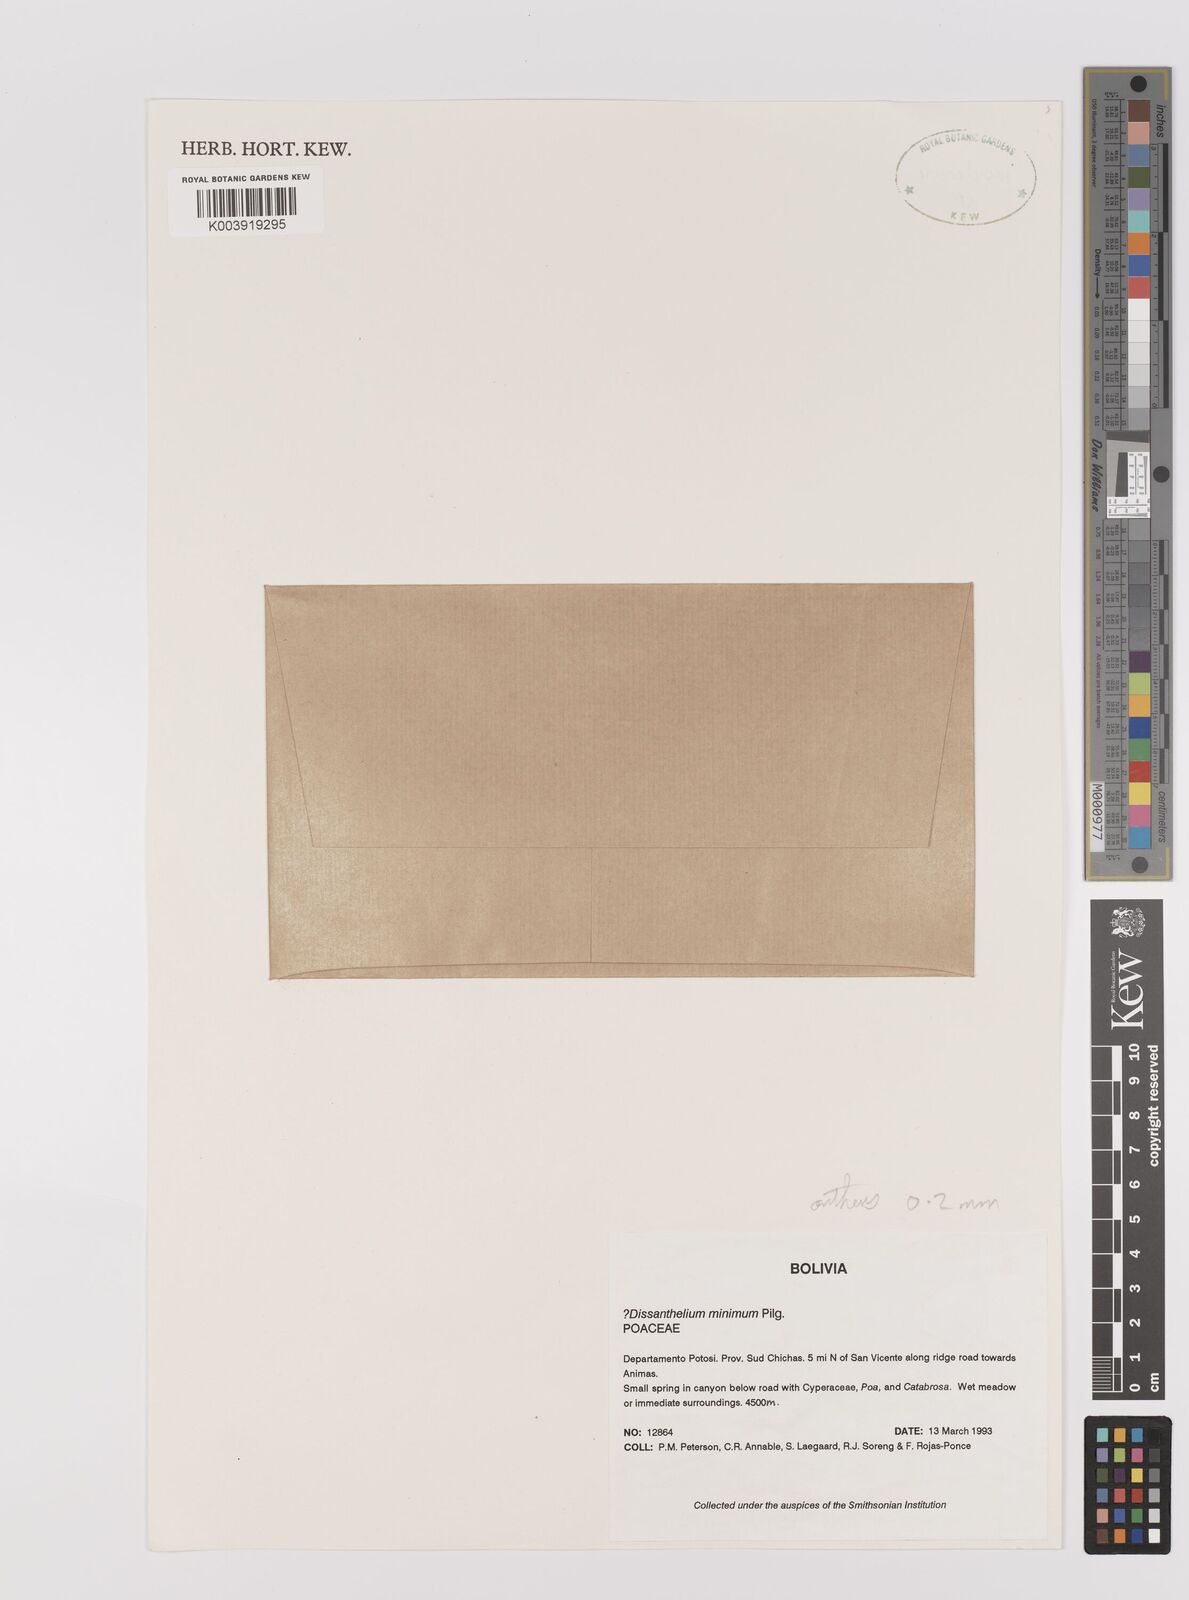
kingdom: Plantae
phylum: Tracheophyta
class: Liliopsida
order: Poales
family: Poaceae
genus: Poa
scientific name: Poa macusaniensis
